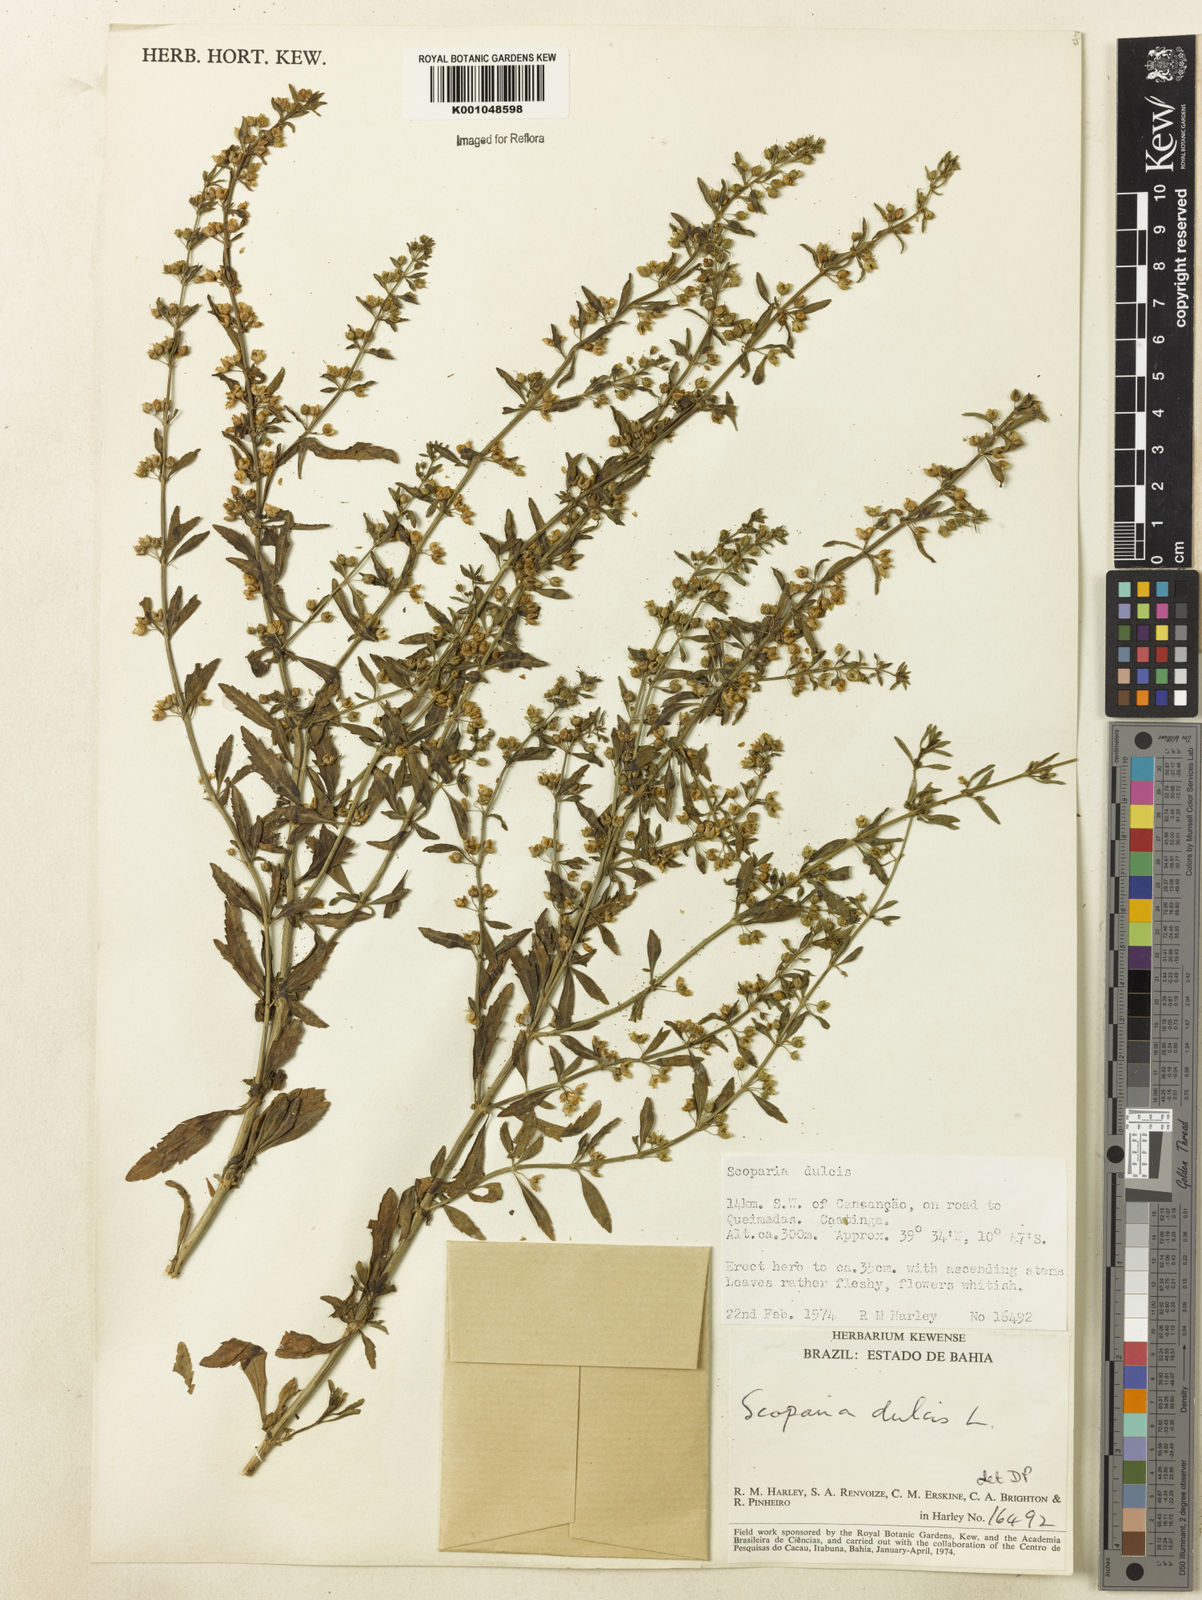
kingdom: Plantae
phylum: Tracheophyta
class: Magnoliopsida
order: Lamiales
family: Plantaginaceae
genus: Scoparia
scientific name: Scoparia dulcis
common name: Scoparia-weed
